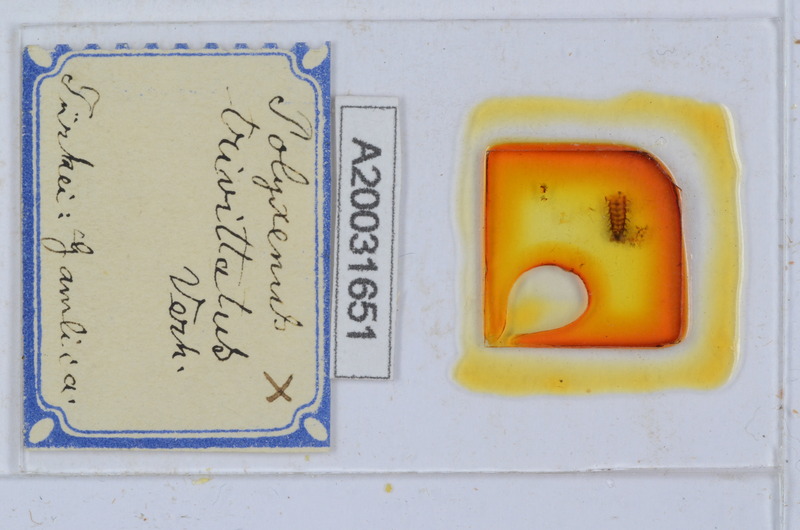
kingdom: Animalia
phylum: Arthropoda
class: Diplopoda
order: Polyxenida
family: Polyxenidae
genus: Propolyxenus
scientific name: Propolyxenus argentifer
